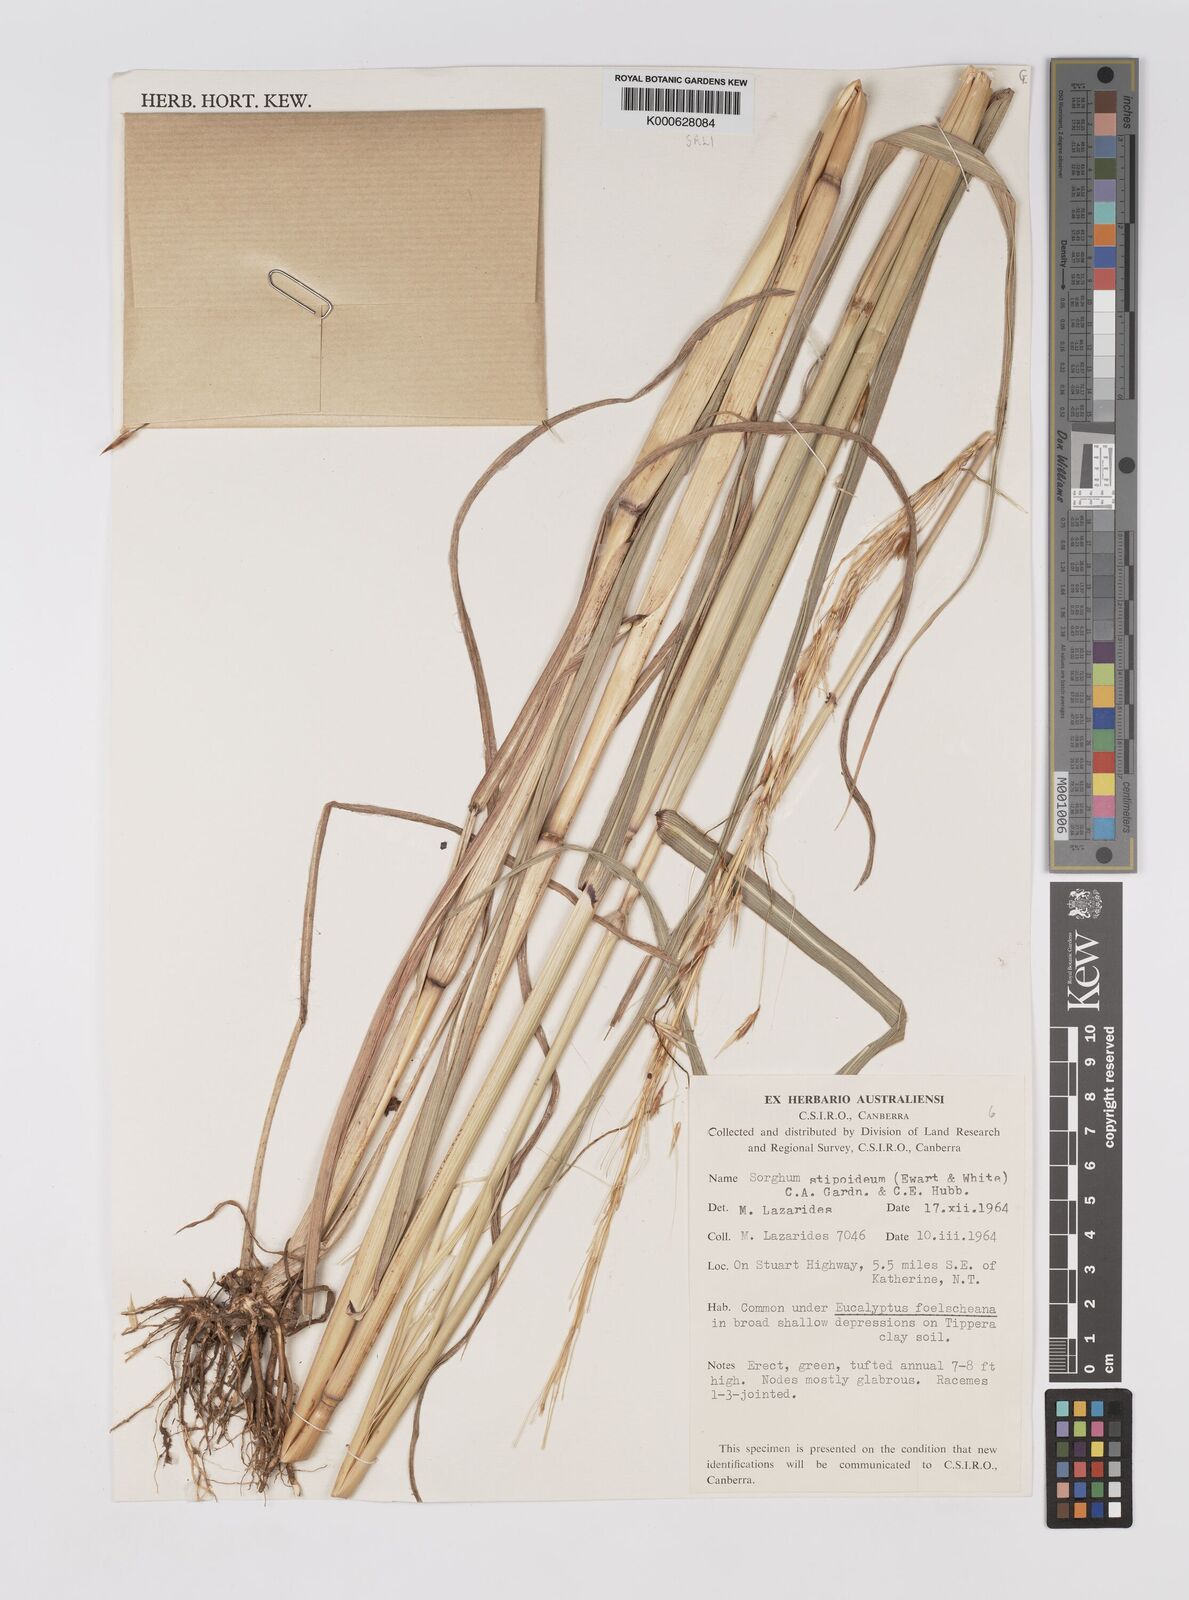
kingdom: Plantae
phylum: Tracheophyta
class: Liliopsida
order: Poales
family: Poaceae
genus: Sarga
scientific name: Sarga stipoidea
